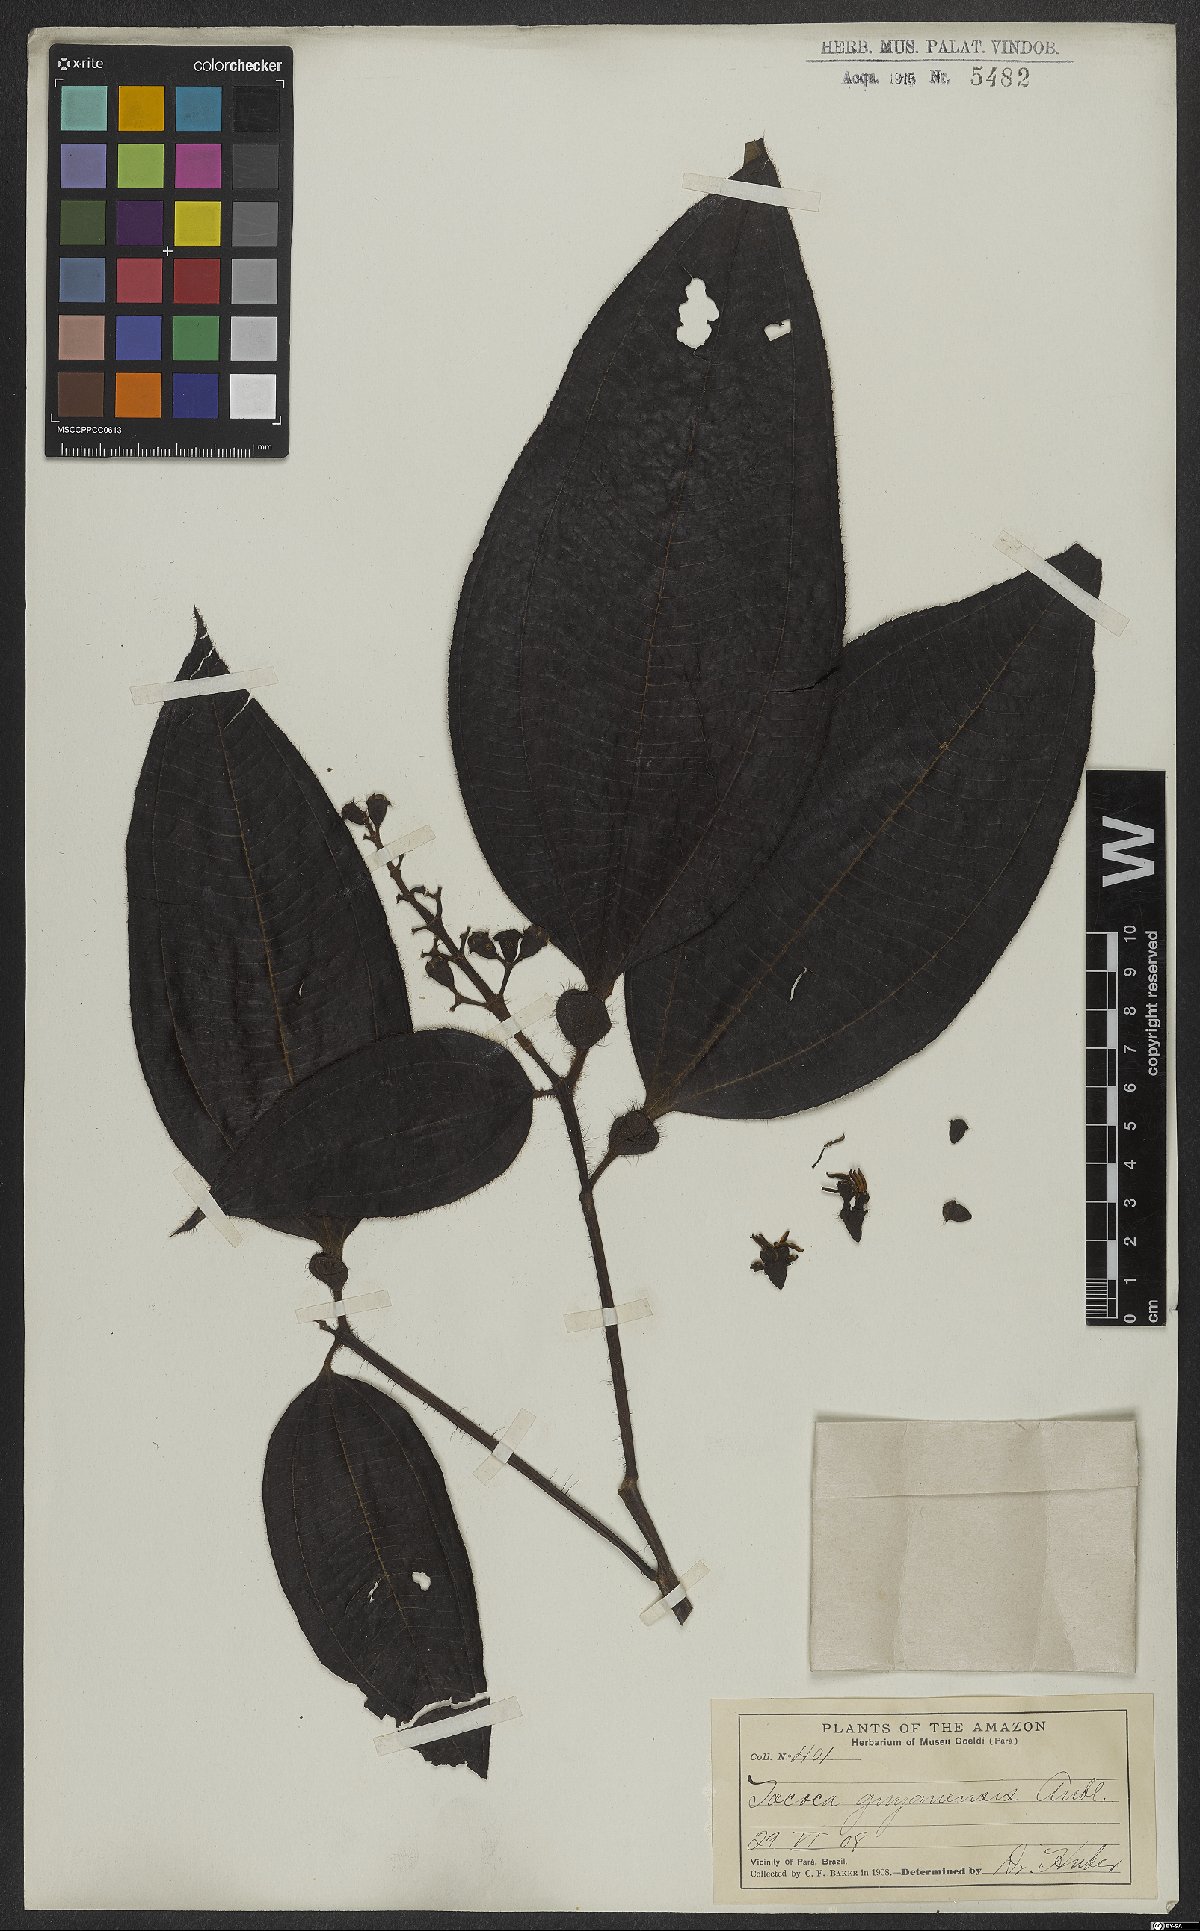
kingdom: Plantae
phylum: Tracheophyta
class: Magnoliopsida
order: Myrtales
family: Melastomataceae
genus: Miconia
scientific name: Miconia tococa
